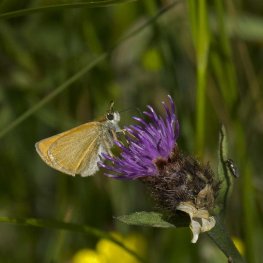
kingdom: Animalia
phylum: Arthropoda
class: Insecta
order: Lepidoptera
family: Hesperiidae
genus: Thymelicus
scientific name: Thymelicus lineola
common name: European Skipper
